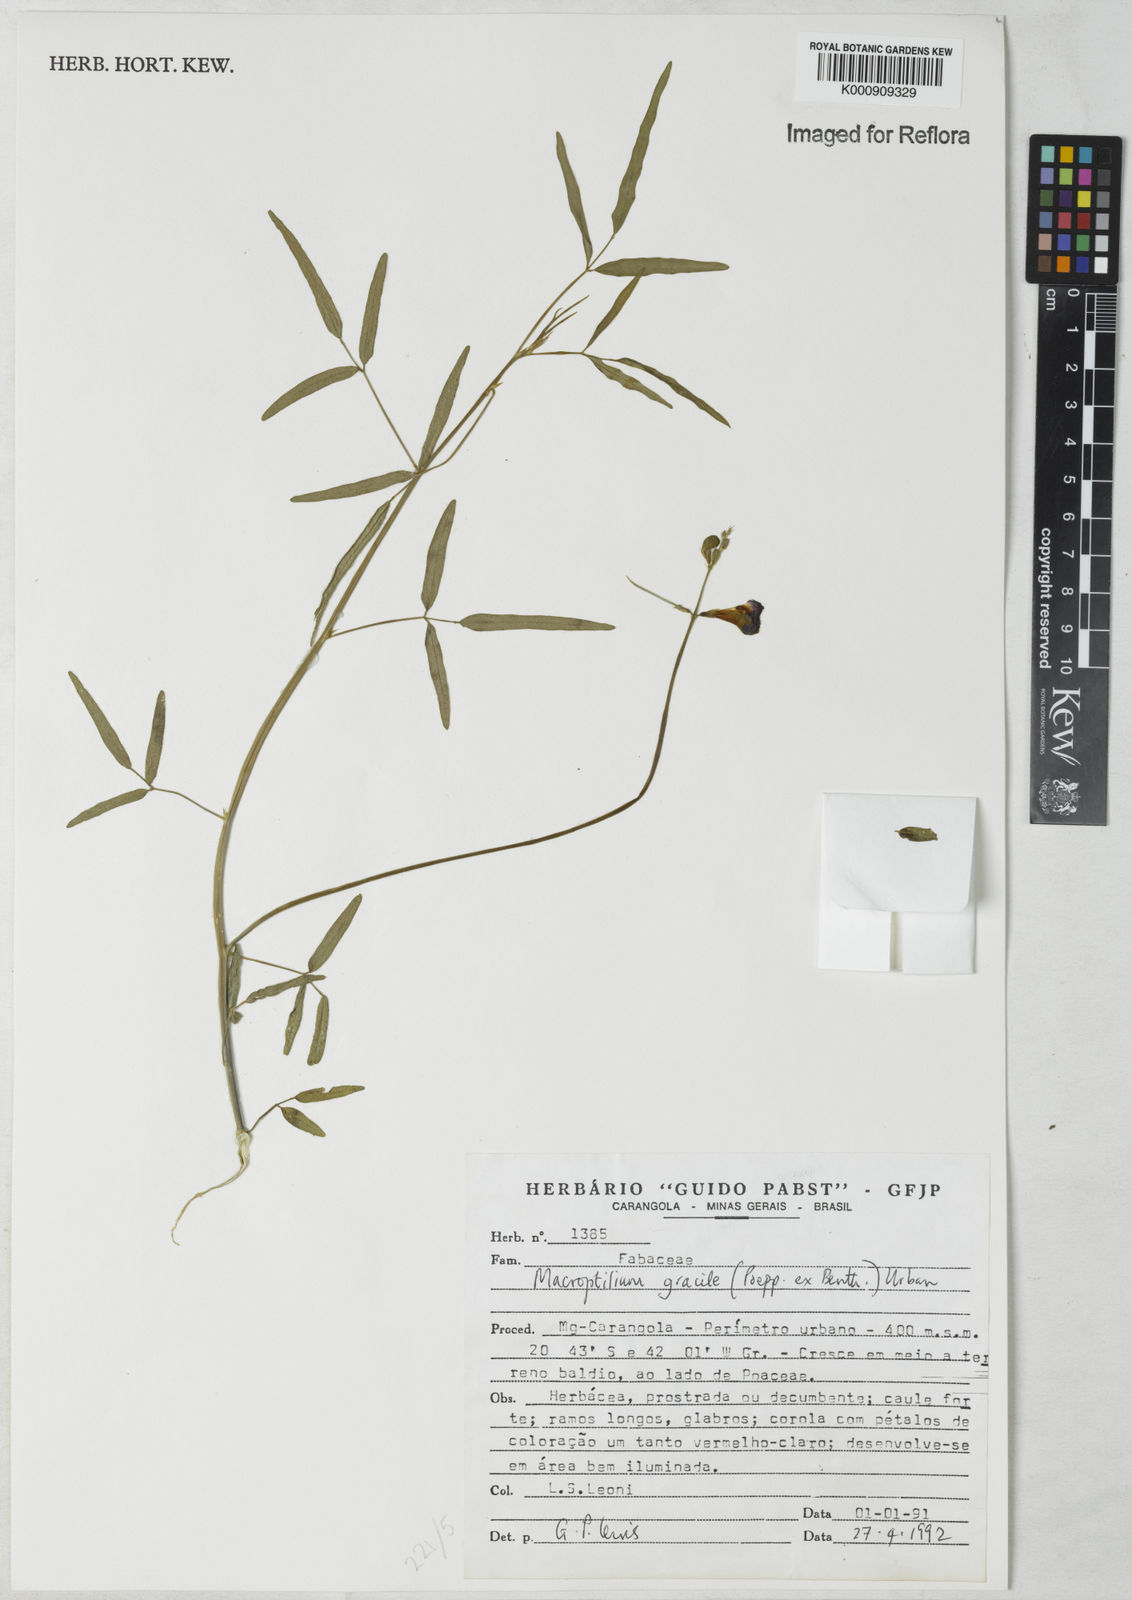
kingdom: Plantae
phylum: Tracheophyta
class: Magnoliopsida
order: Fabales
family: Fabaceae
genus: Macroptilium
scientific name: Macroptilium gracile
